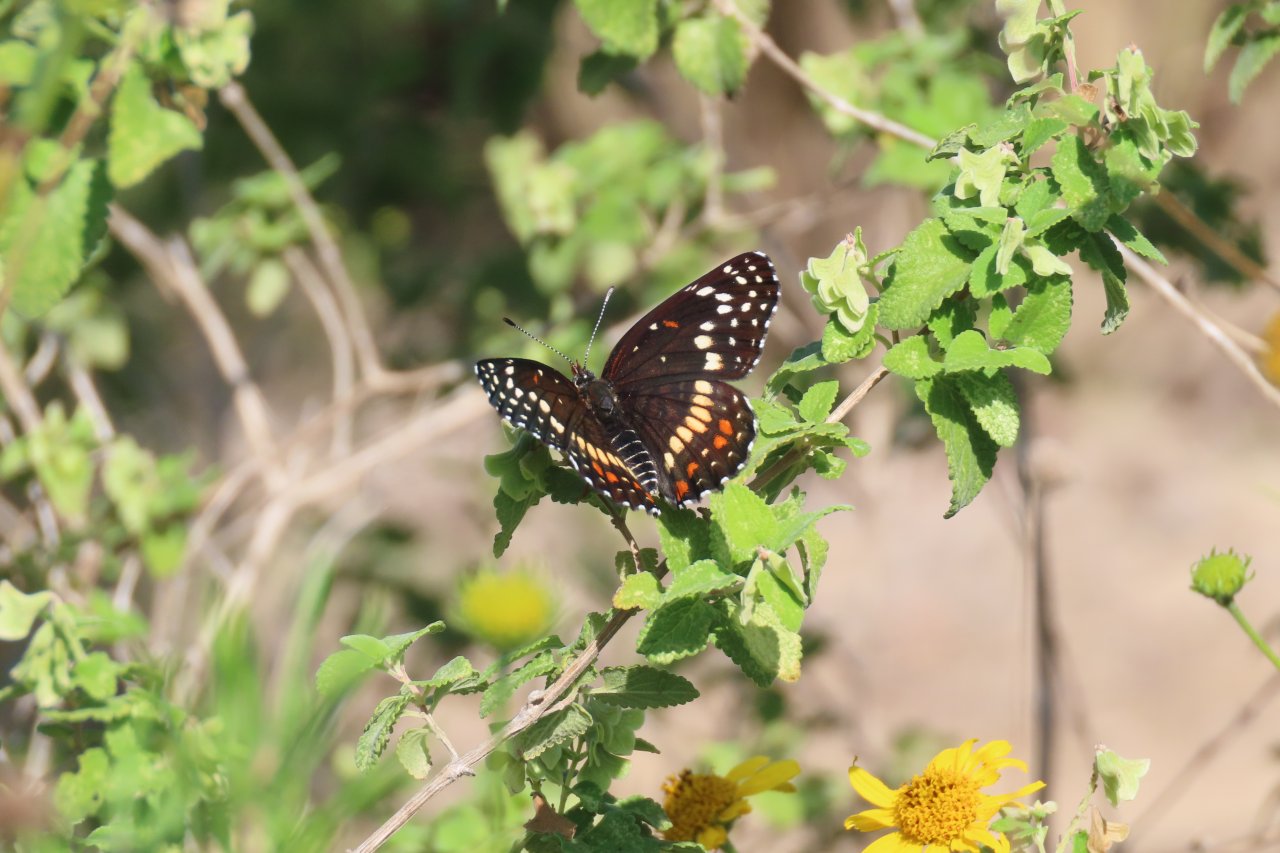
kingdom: Animalia
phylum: Arthropoda
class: Insecta
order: Lepidoptera
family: Nymphalidae
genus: Chlosyne
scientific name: Chlosyne endeis
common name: Banded Patch
